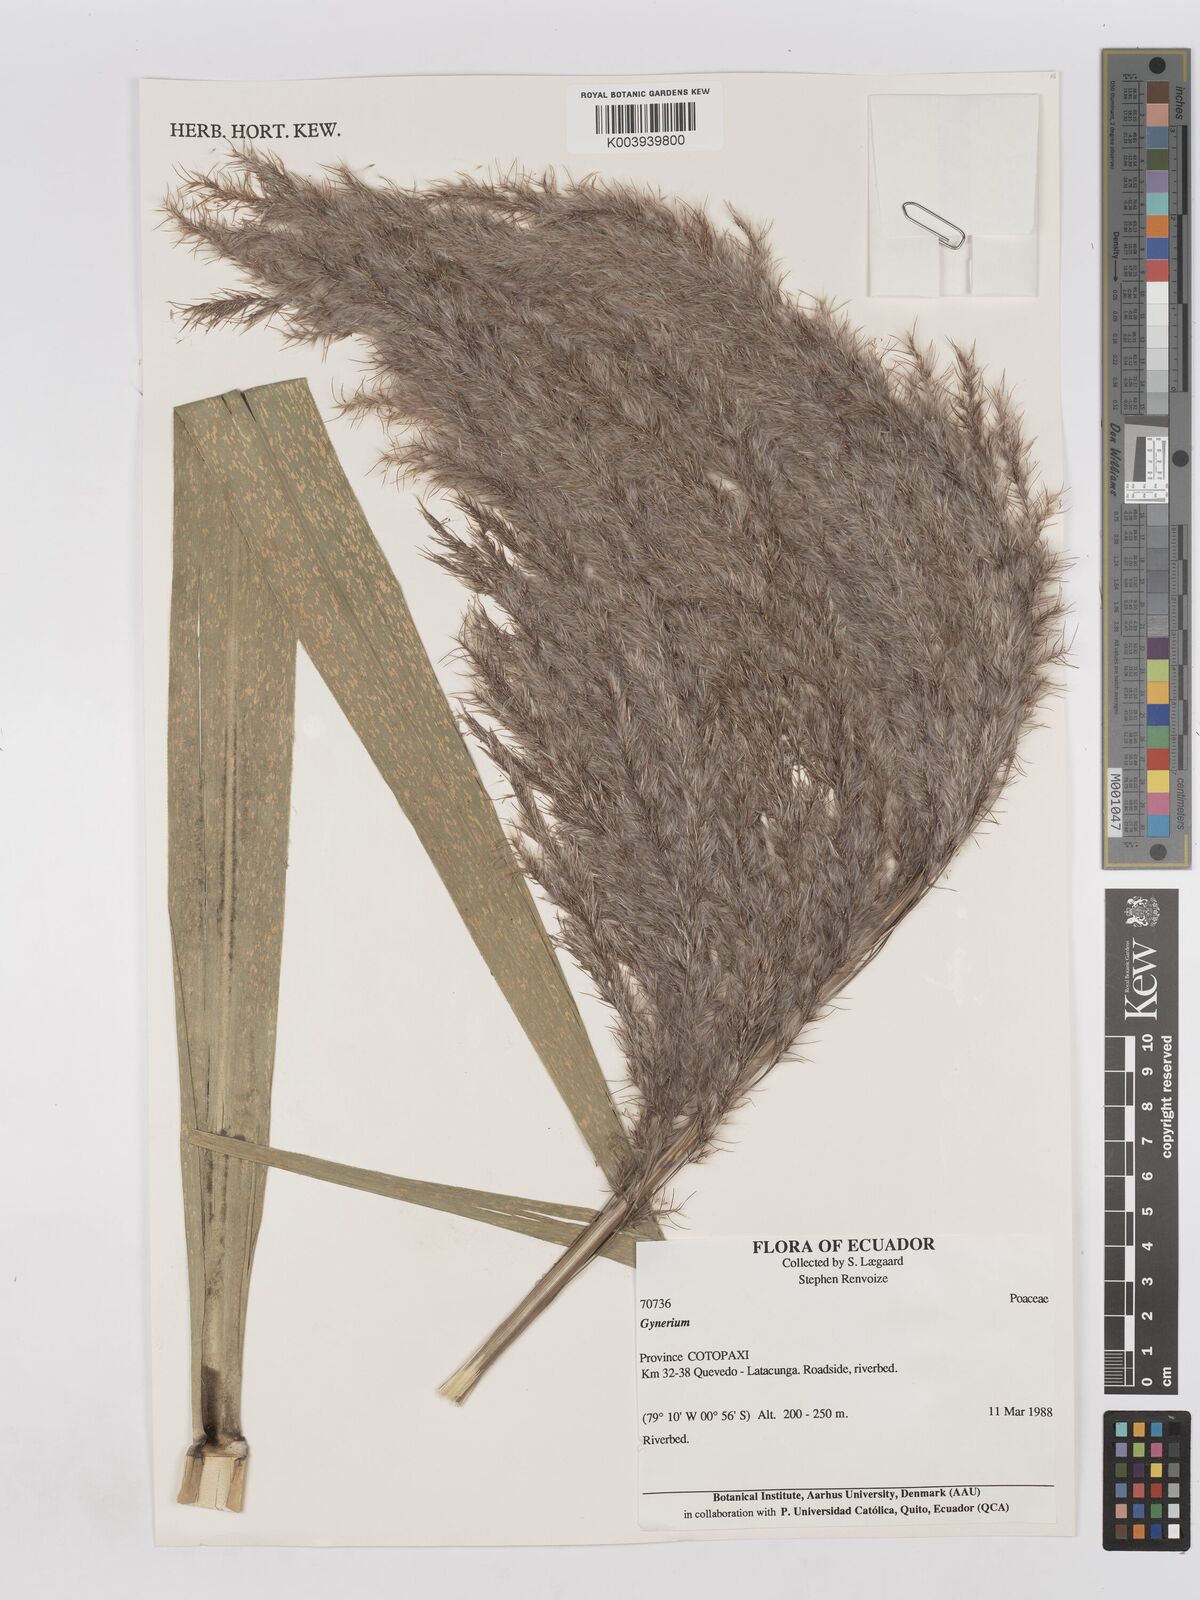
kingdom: Plantae
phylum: Tracheophyta
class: Liliopsida
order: Poales
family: Poaceae
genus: Gynerium
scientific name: Gynerium sagittatum
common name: Wild cane
